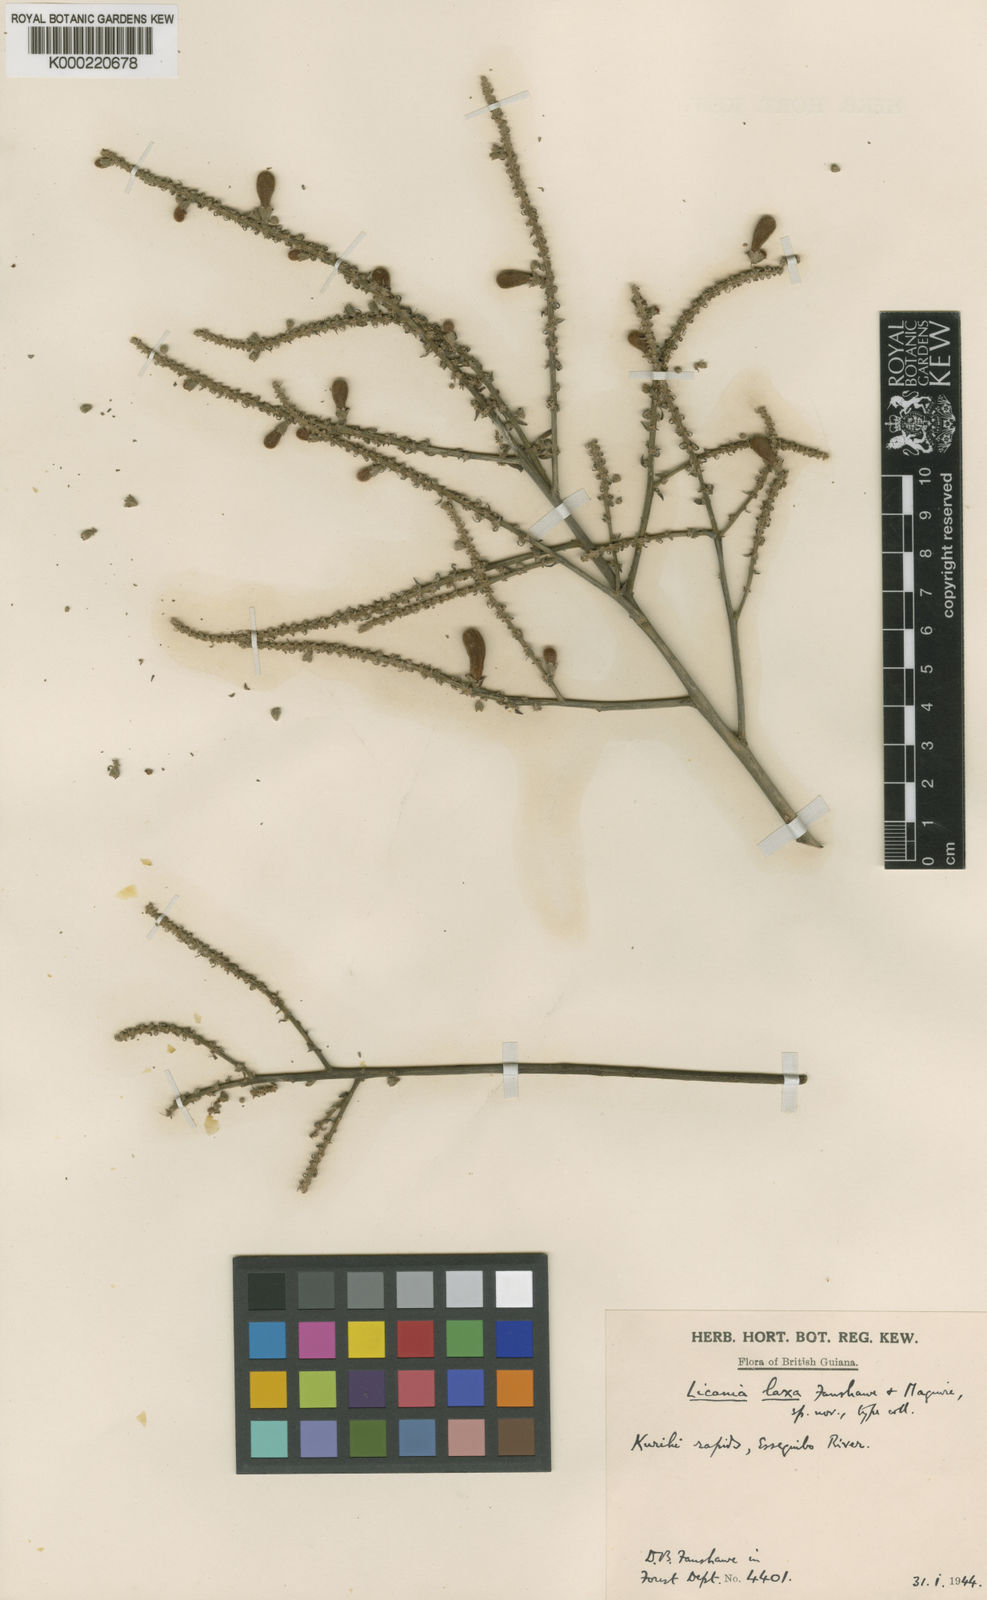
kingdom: Plantae
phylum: Tracheophyta
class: Magnoliopsida
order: Malpighiales
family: Chrysobalanaceae
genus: Licania
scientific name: Licania polita
